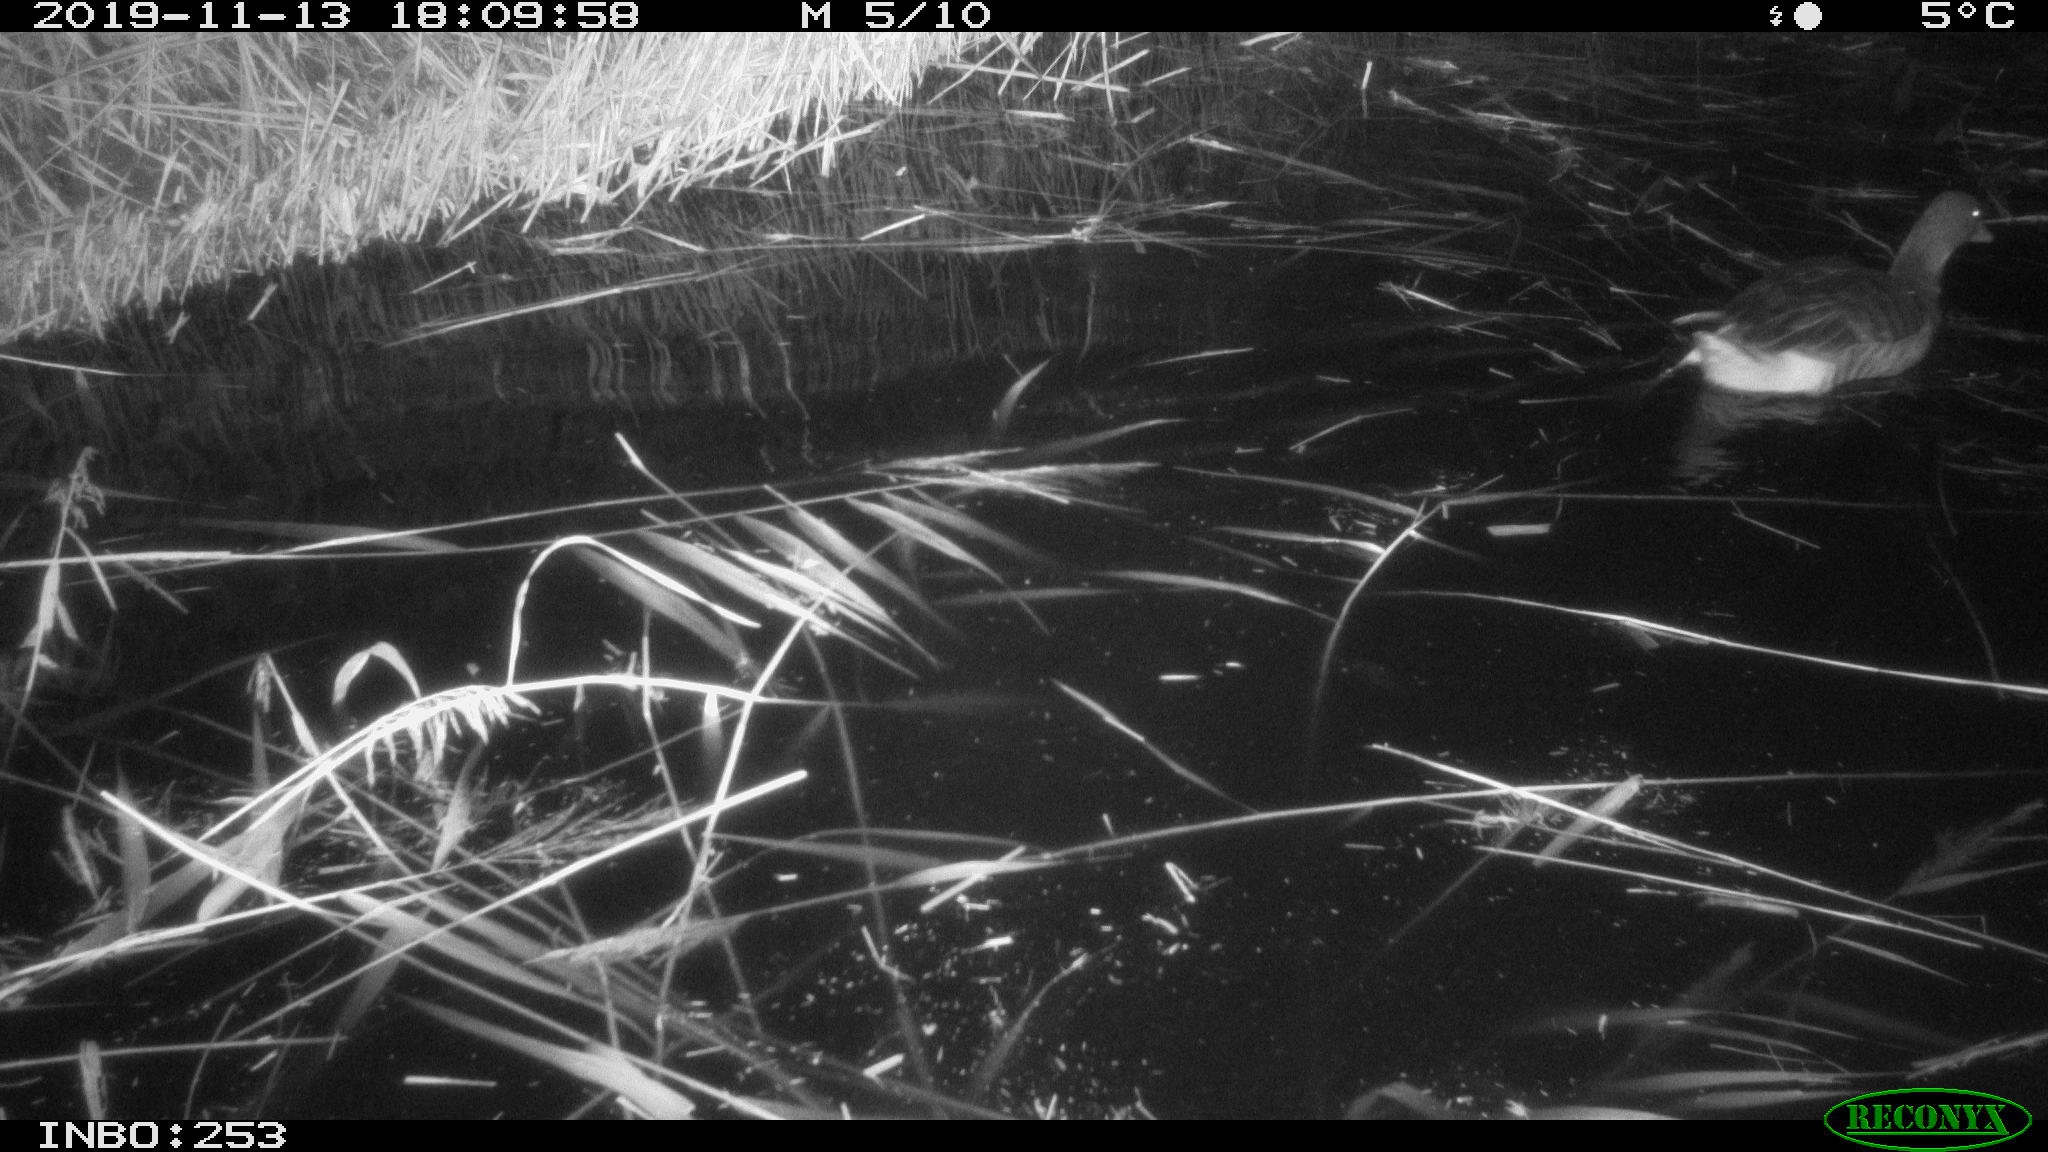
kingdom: Animalia
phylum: Chordata
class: Aves
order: Anseriformes
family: Anatidae
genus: Anser
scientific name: Anser anser
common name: Greylag goose
